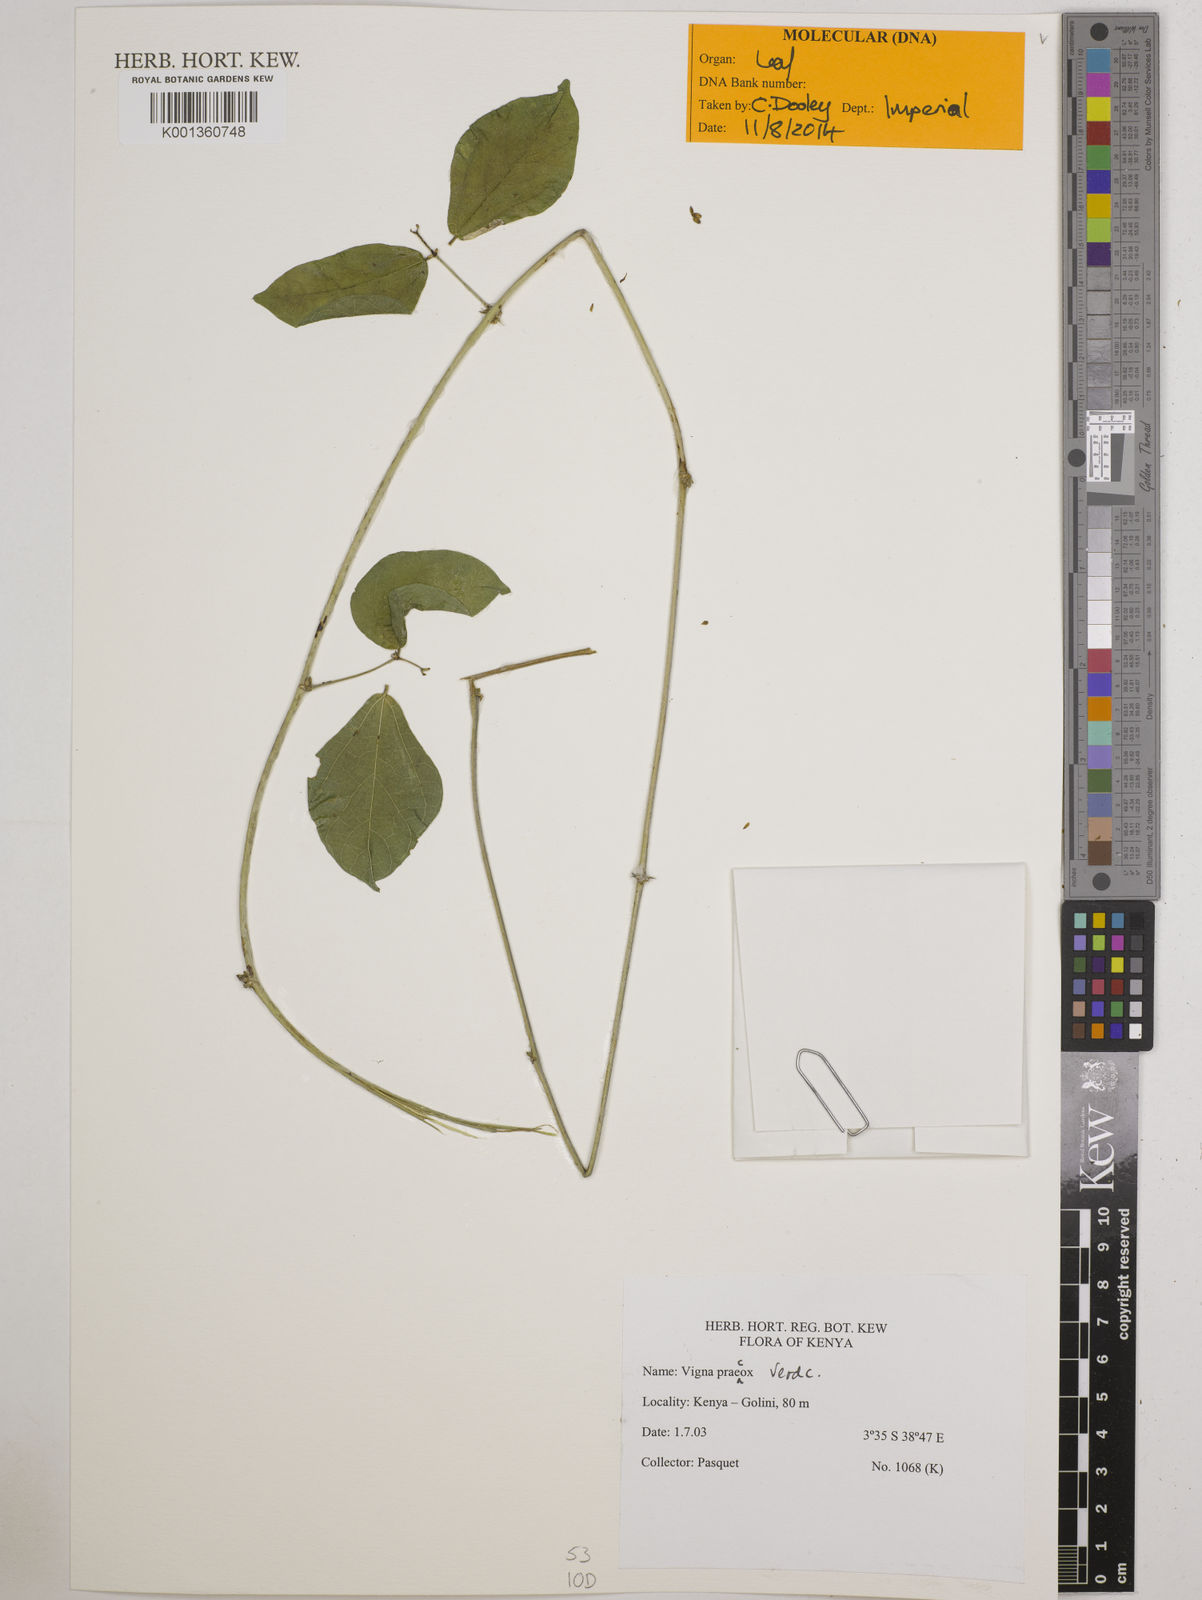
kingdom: Plantae
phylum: Tracheophyta
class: Magnoliopsida
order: Fabales
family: Fabaceae
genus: Wajira
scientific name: Wajira praecox
